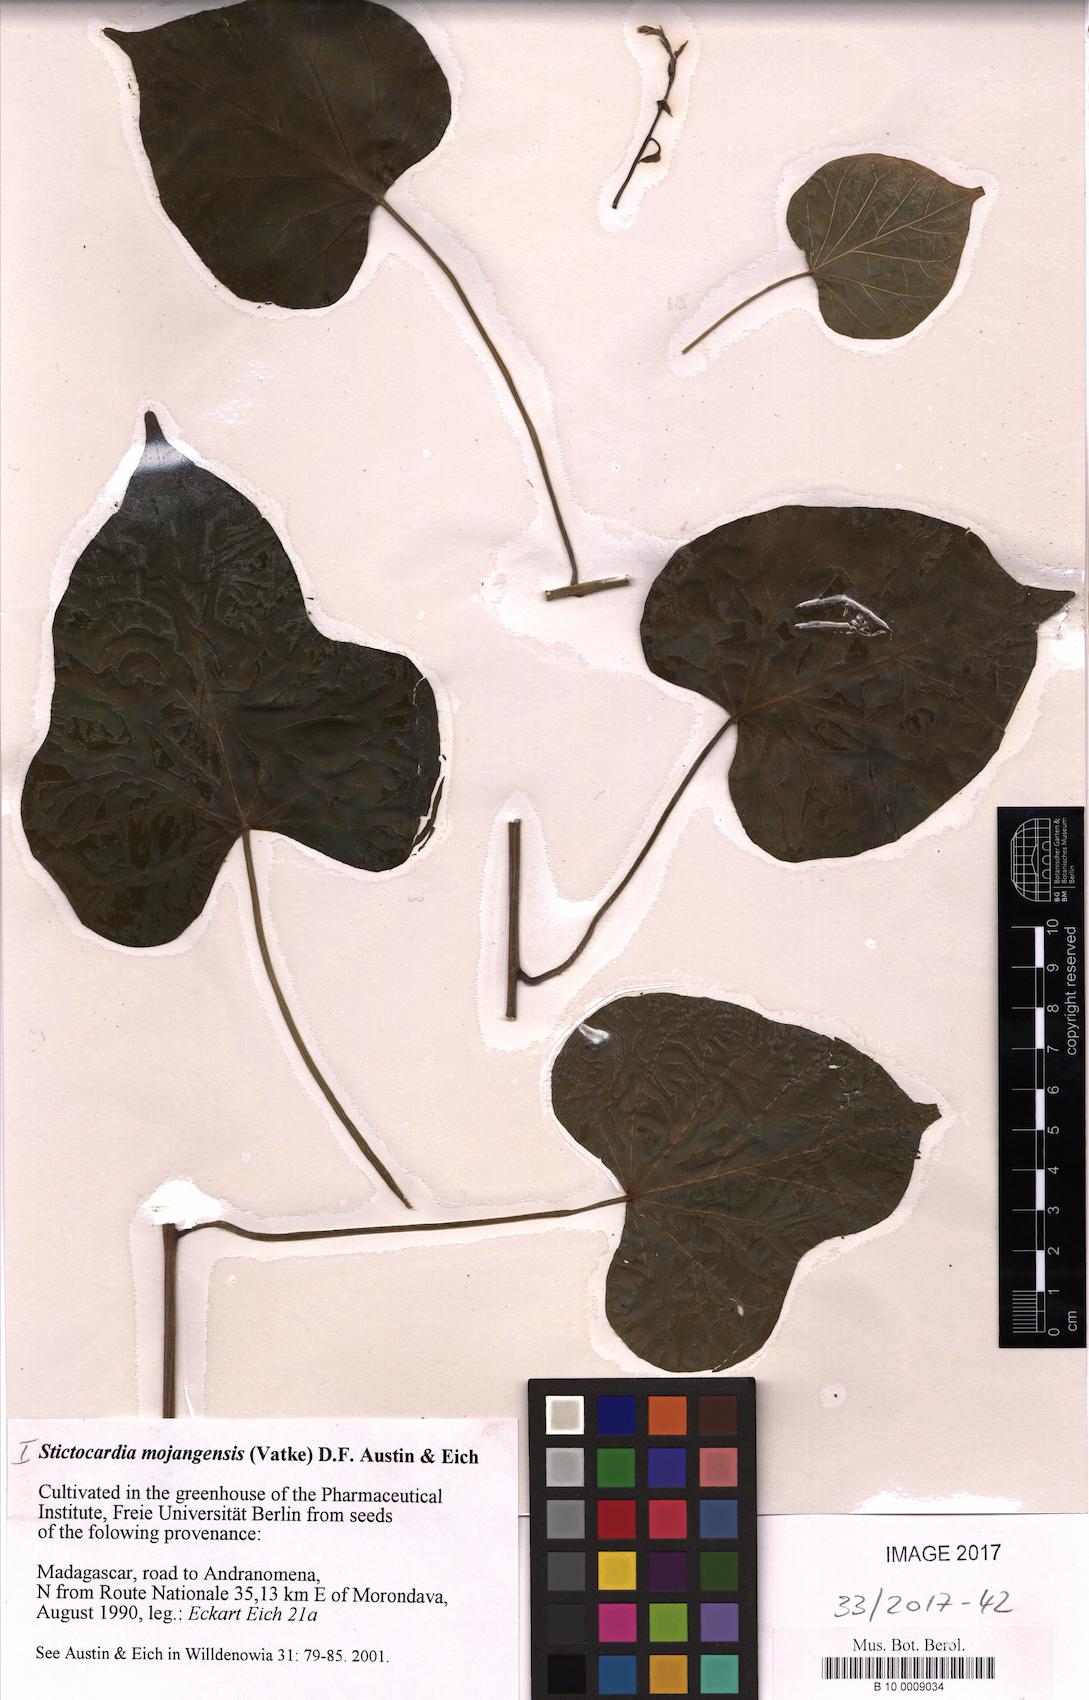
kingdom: Plantae
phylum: Tracheophyta
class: Magnoliopsida
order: Solanales
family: Convolvulaceae
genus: Stictocardia
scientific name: Stictocardia mojangensis
